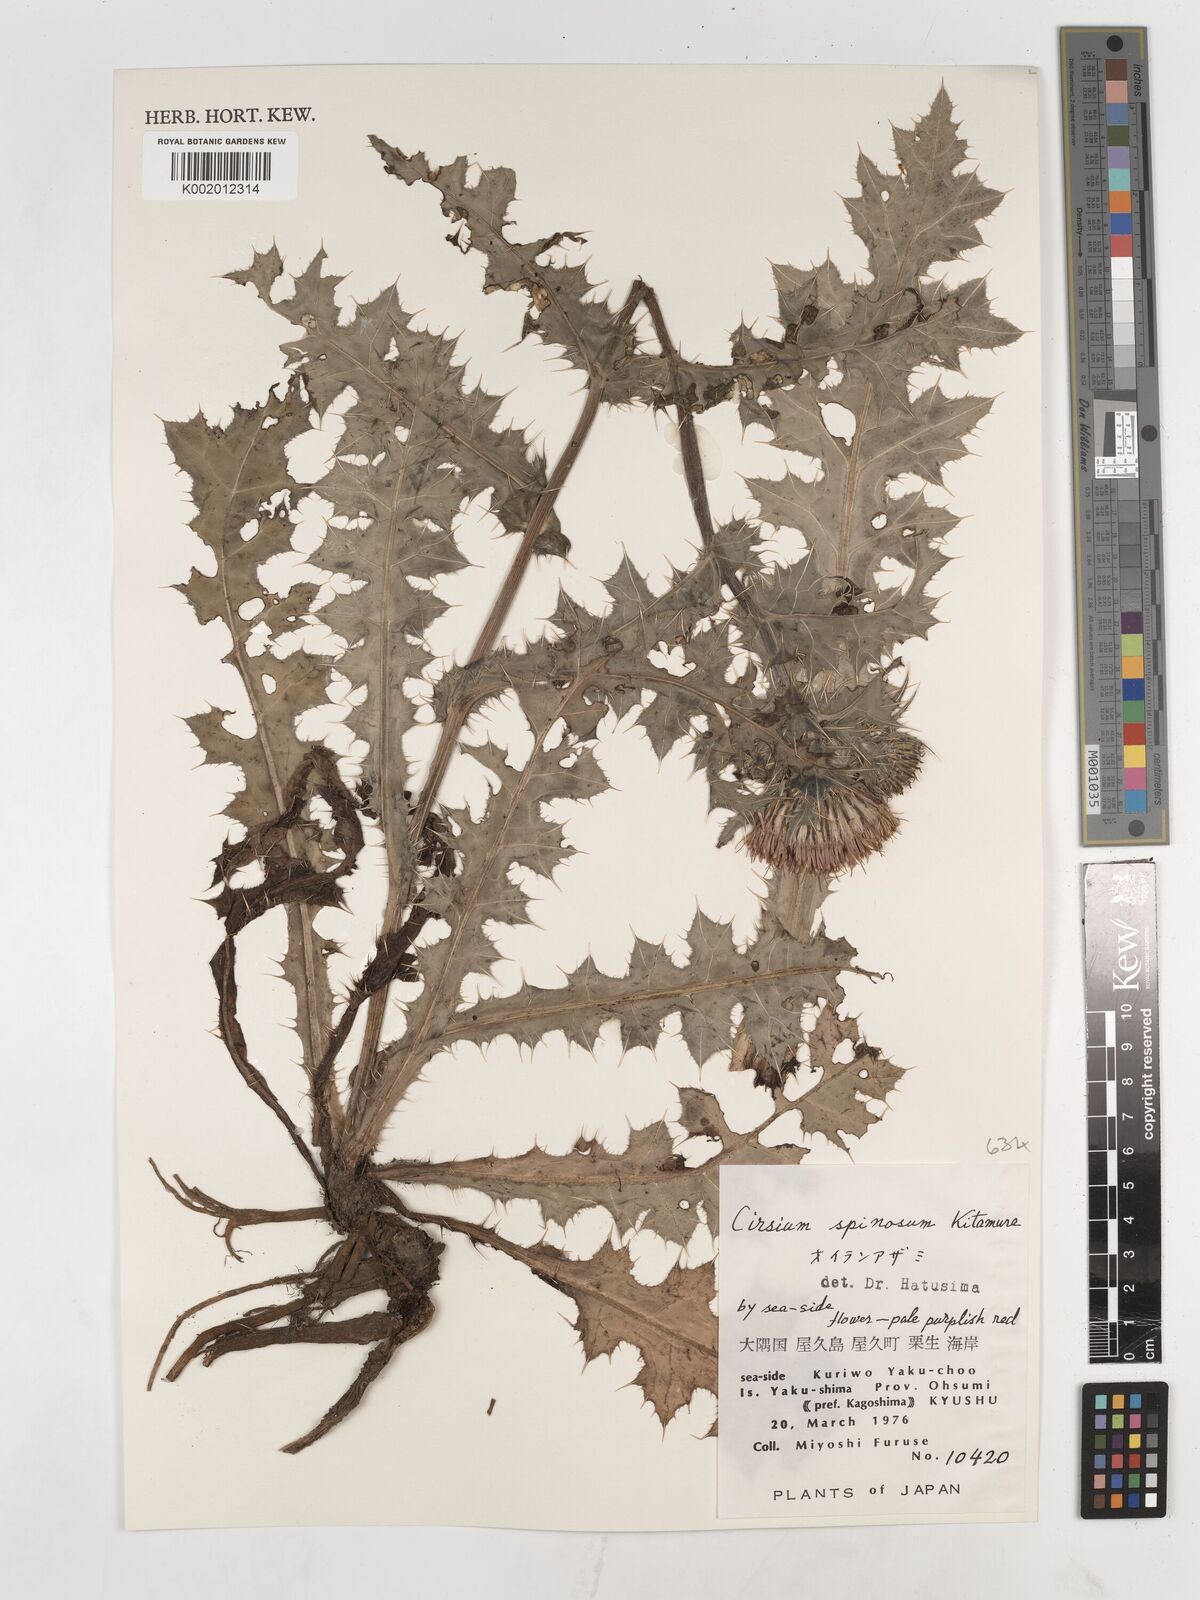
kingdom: Plantae
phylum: Tracheophyta
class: Magnoliopsida
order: Asterales
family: Asteraceae
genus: Cirsium
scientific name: Cirsium spinosum
